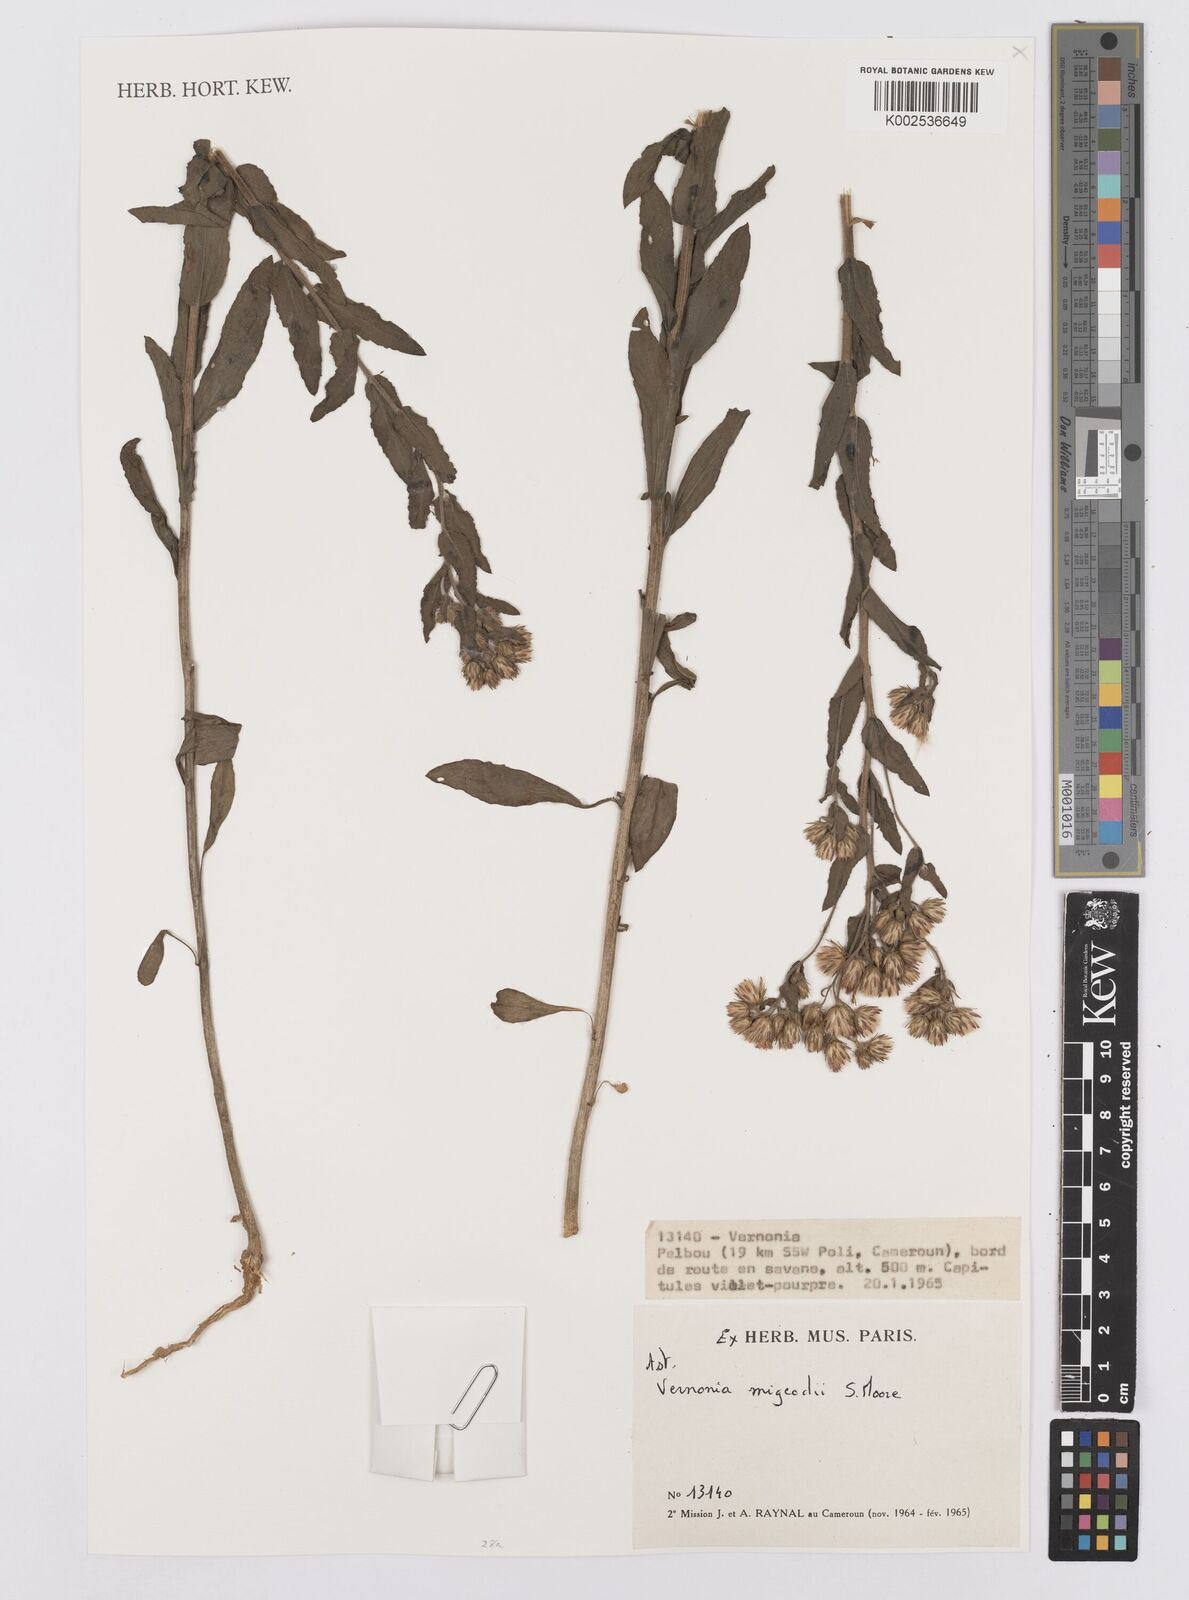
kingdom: Plantae
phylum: Tracheophyta
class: Magnoliopsida
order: Asterales
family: Asteraceae
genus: Vernoniastrum
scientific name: Vernoniastrum migeodii
